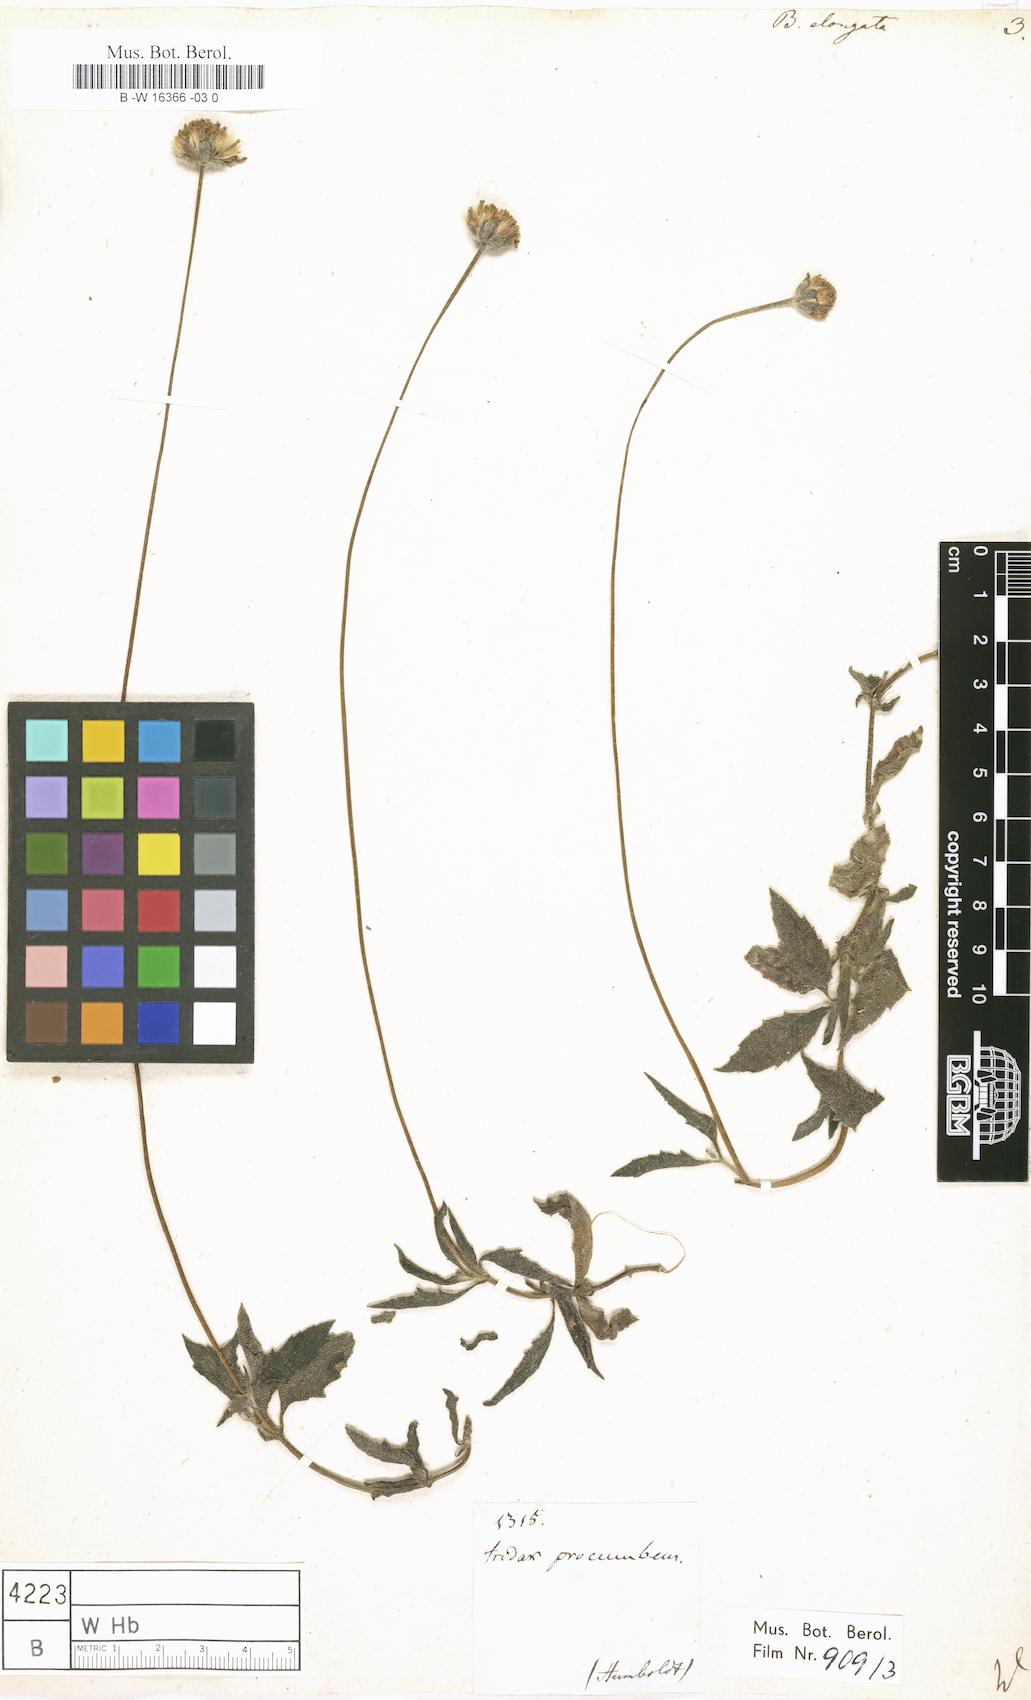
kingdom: Plantae
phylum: Tracheophyta
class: Magnoliopsida
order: Asterales
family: Asteraceae
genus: Tridax
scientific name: Tridax procumbens
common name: Coatbuttons
